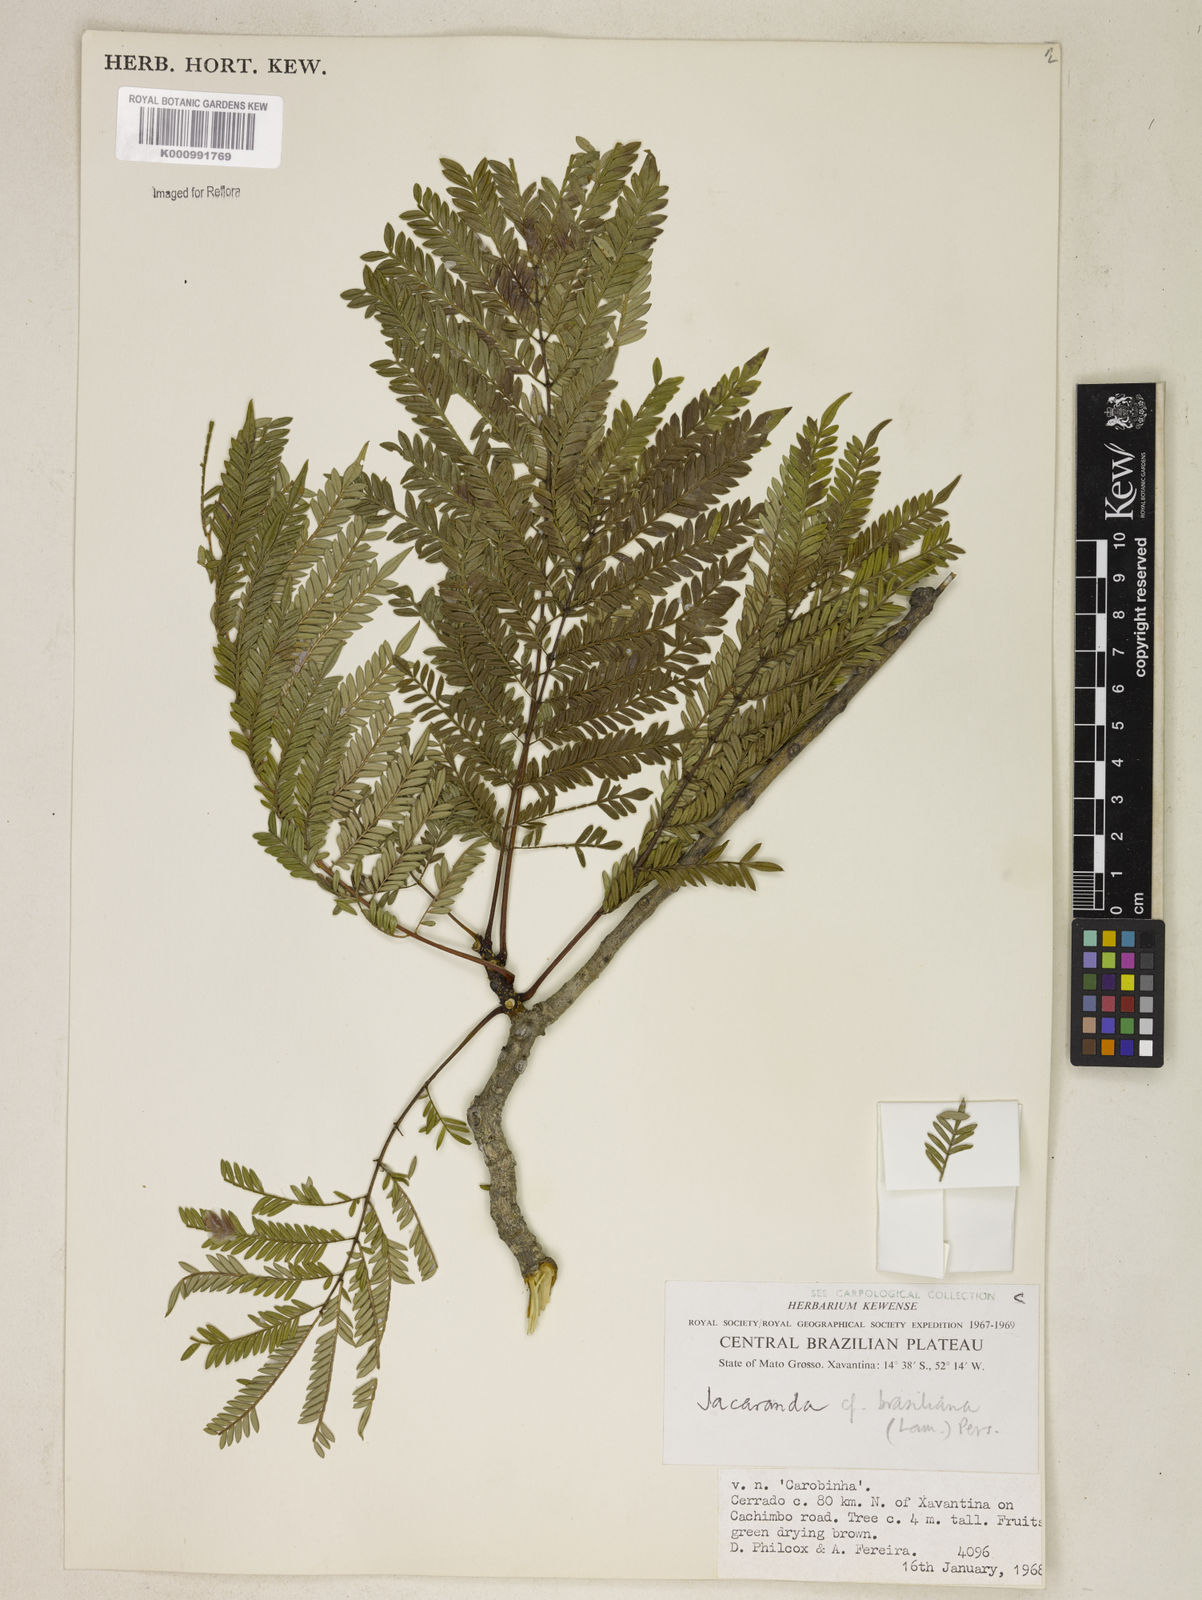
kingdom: Plantae
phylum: Tracheophyta
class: Magnoliopsida
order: Lamiales
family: Bignoniaceae
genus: Jacaranda
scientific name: Jacaranda brasiliana
